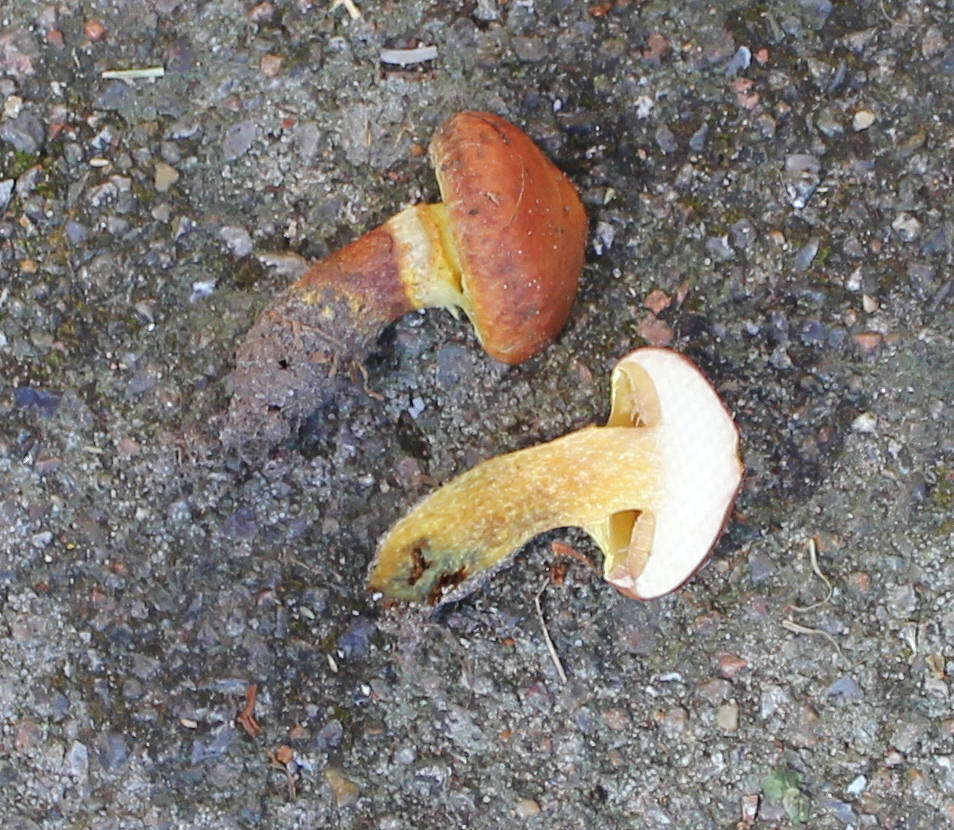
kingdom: Fungi
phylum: Basidiomycota
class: Agaricomycetes
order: Boletales
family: Suillaceae
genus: Suillus
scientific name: Suillus grevillei
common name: lærke-slimrørhat
